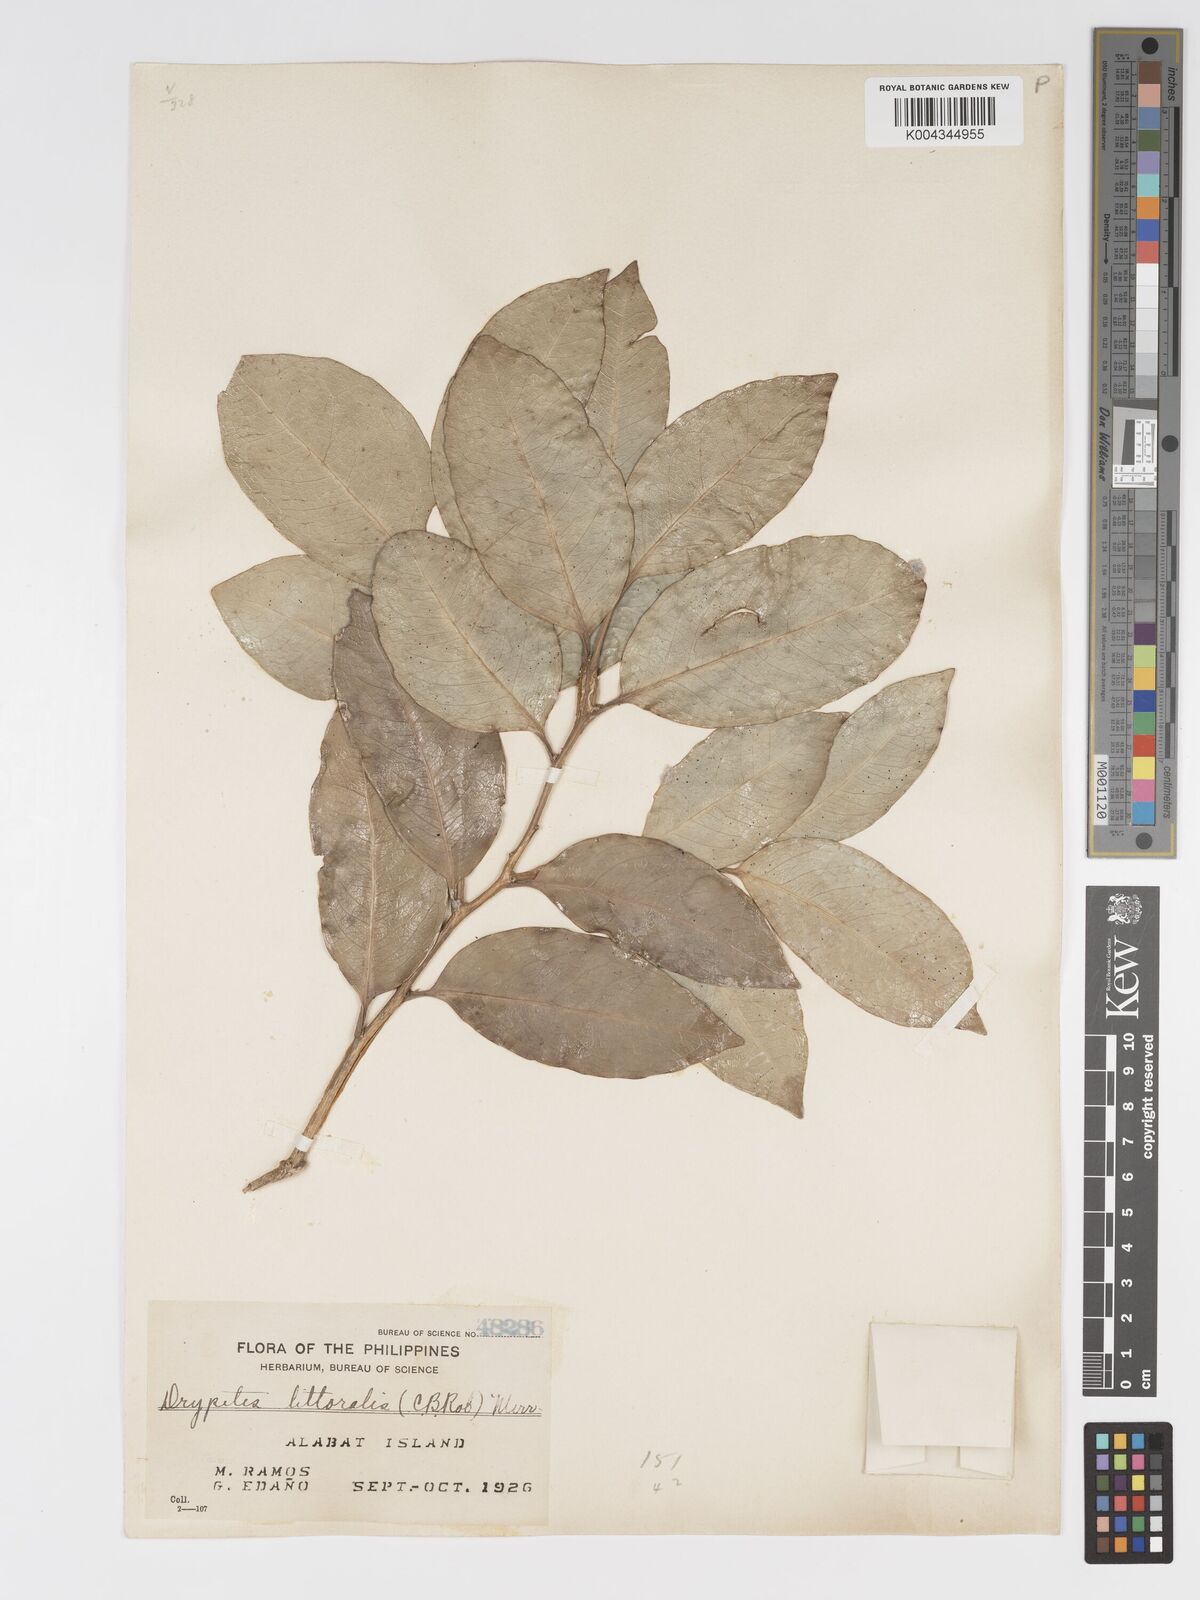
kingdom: Plantae
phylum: Tracheophyta
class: Magnoliopsida
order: Malpighiales
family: Putranjivaceae
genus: Drypetes
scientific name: Drypetes littoralis
